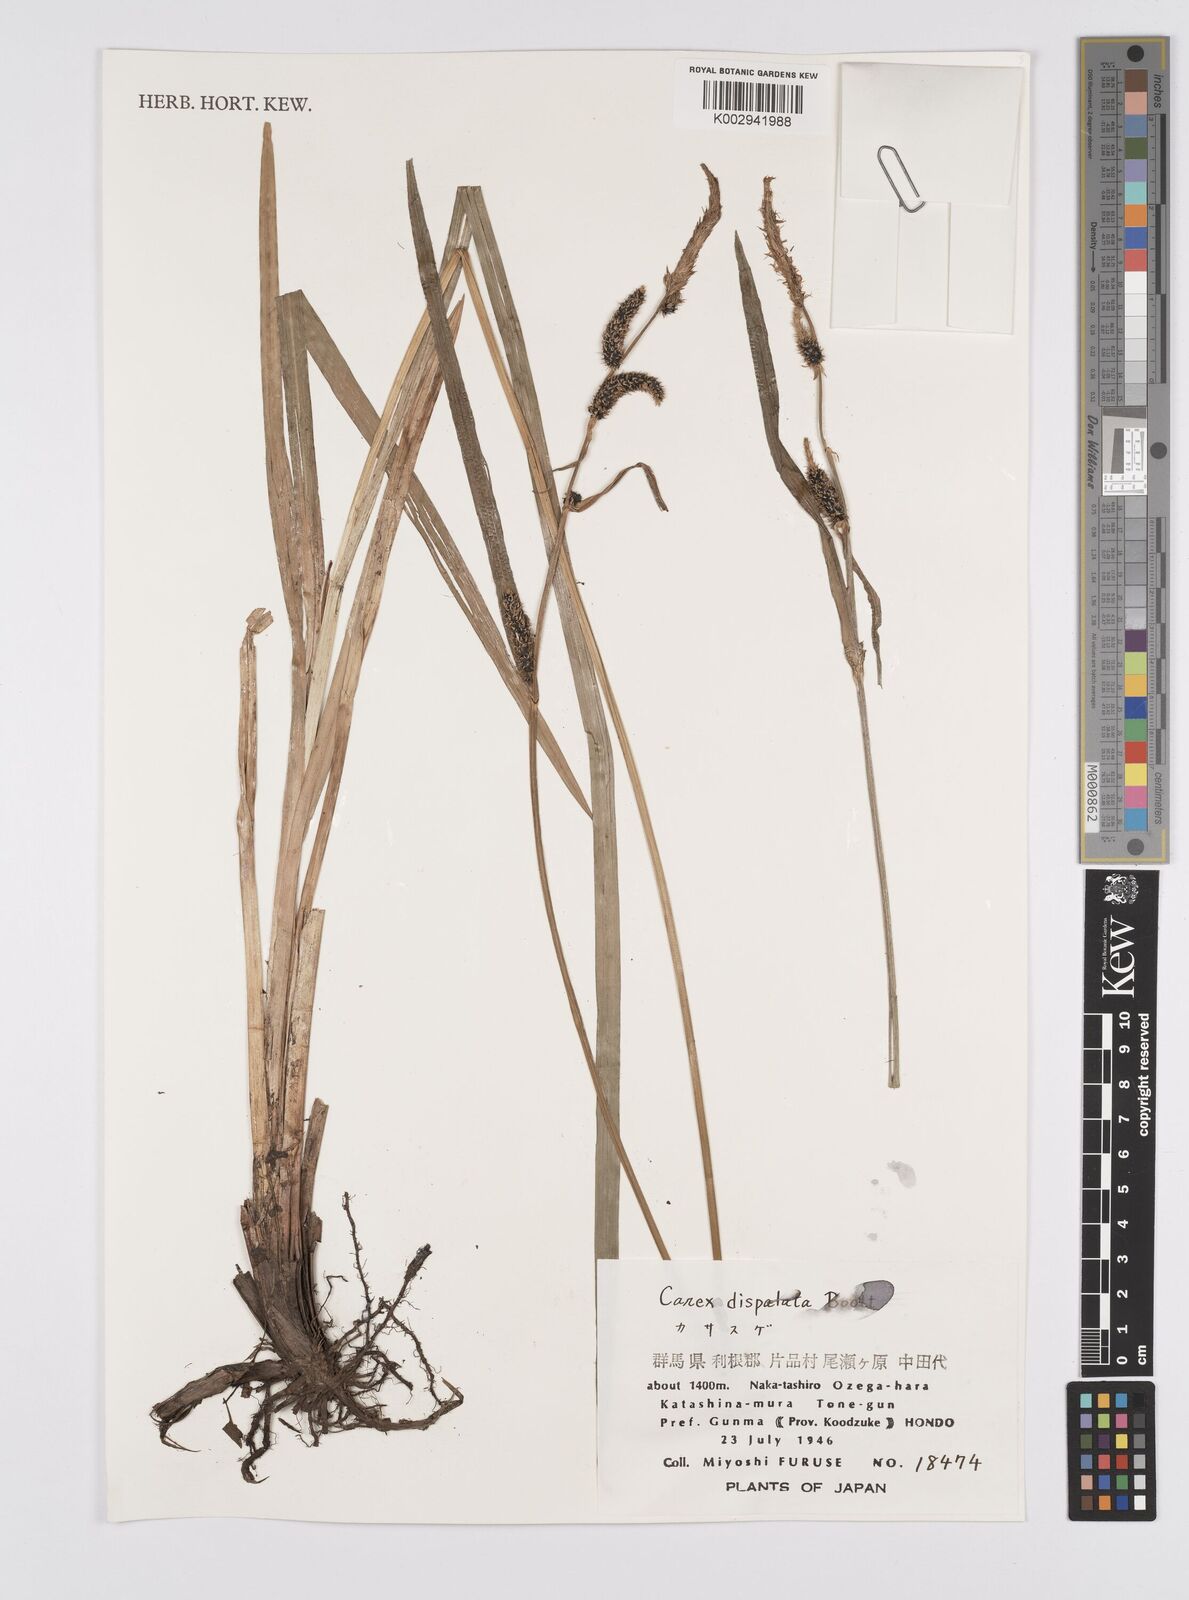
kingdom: Plantae
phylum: Tracheophyta
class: Liliopsida
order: Poales
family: Cyperaceae
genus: Carex
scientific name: Carex dispalata
